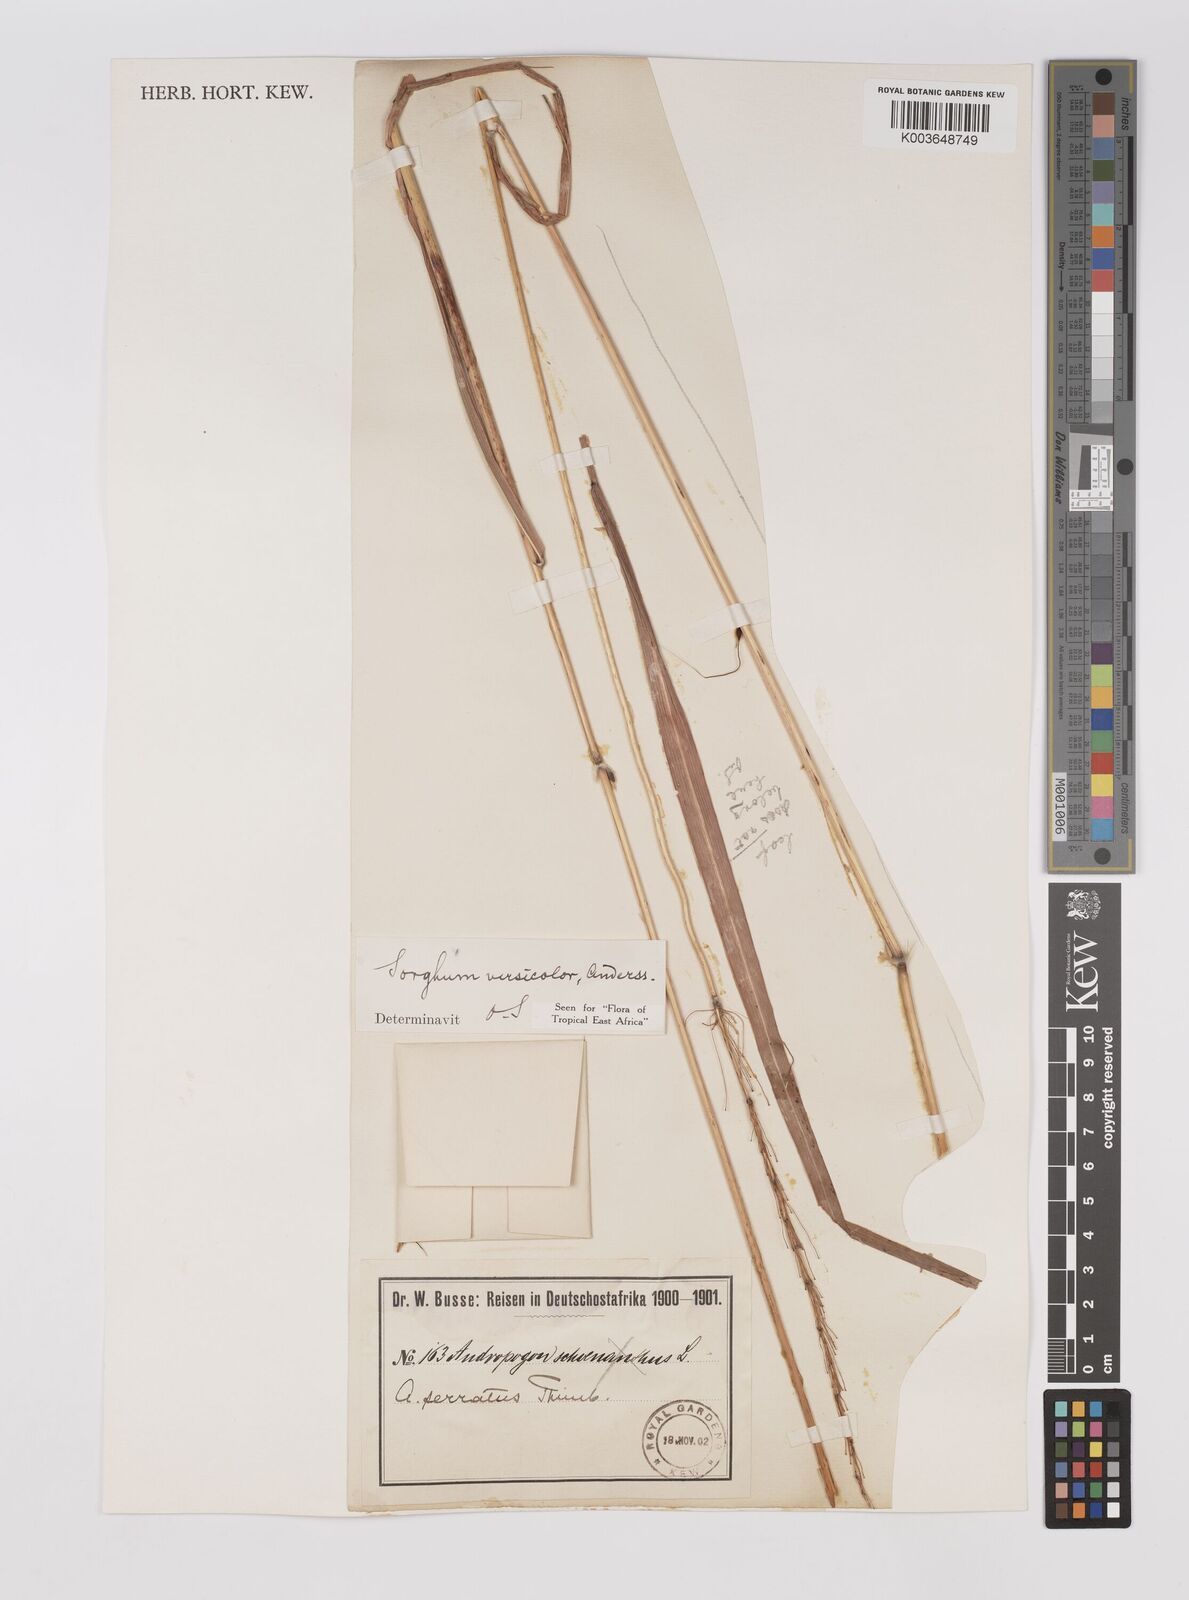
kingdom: Plantae
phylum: Tracheophyta
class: Liliopsida
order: Poales
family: Poaceae
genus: Sarga
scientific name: Sarga versicolor
